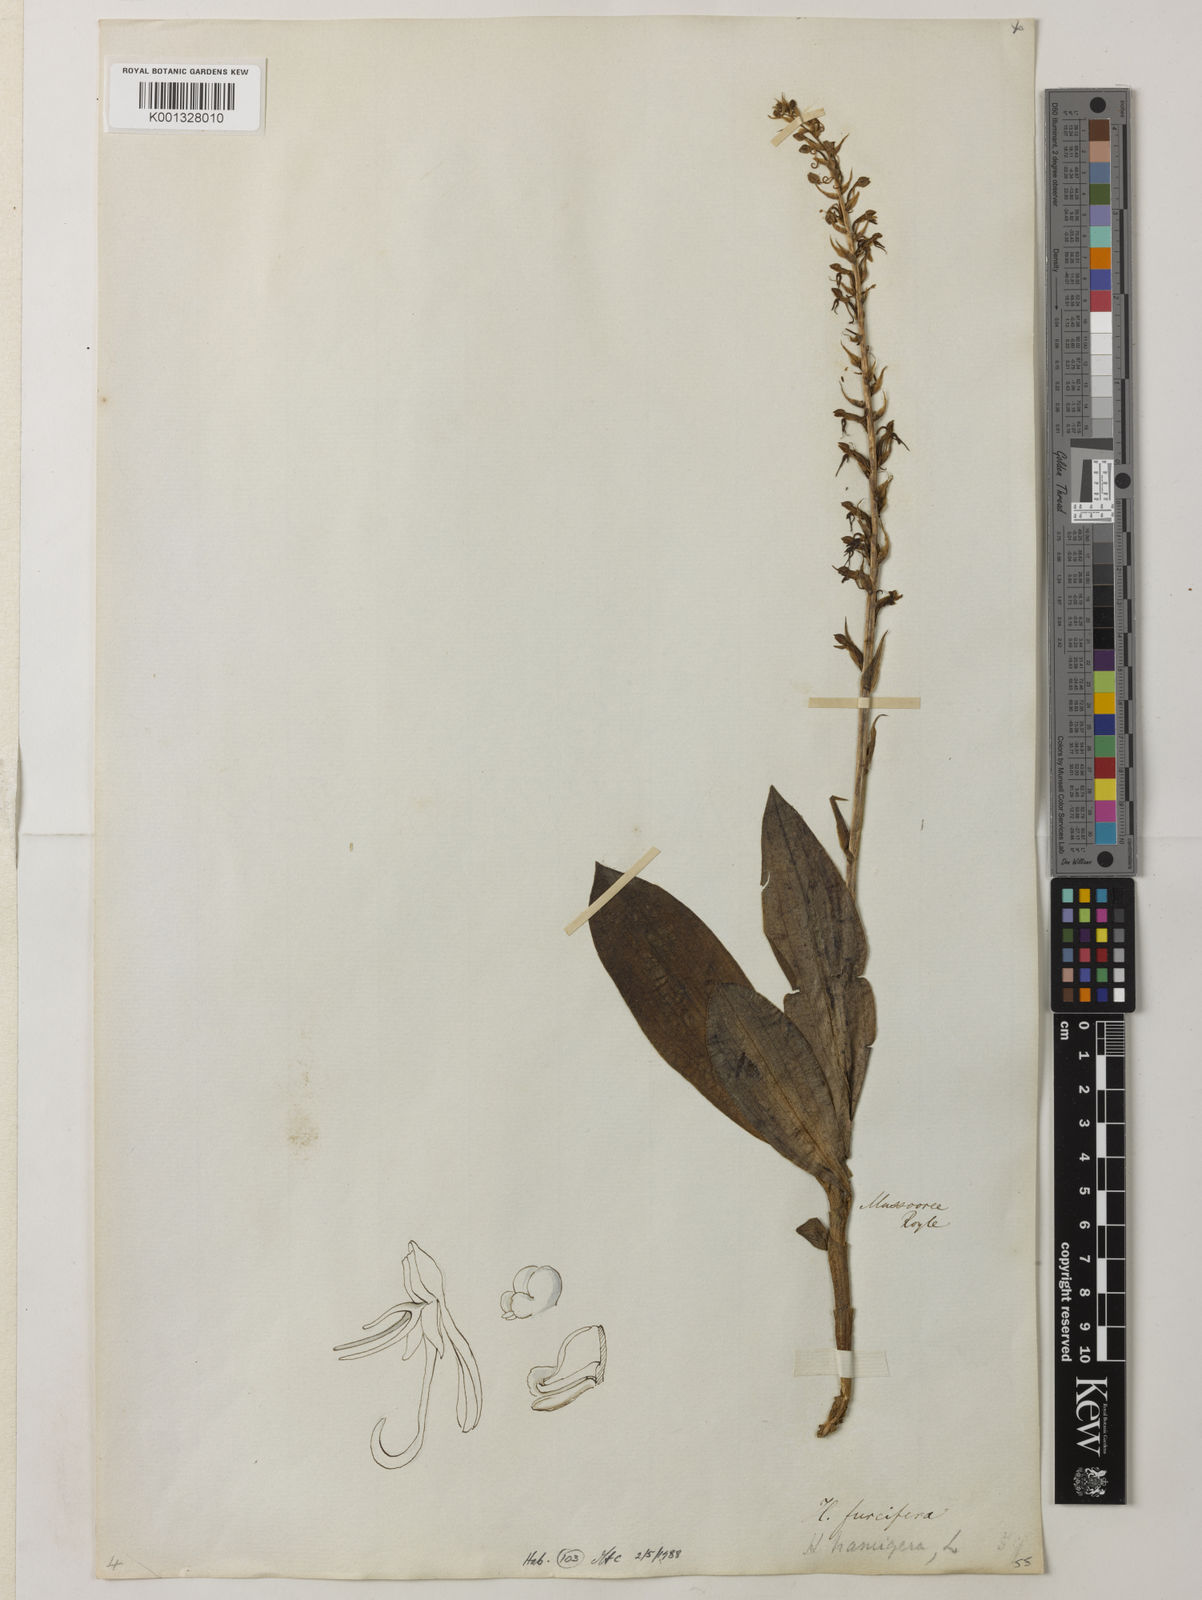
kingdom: Plantae
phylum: Tracheophyta
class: Liliopsida
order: Asparagales
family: Orchidaceae
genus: Habenaria
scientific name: Habenaria furcifera
